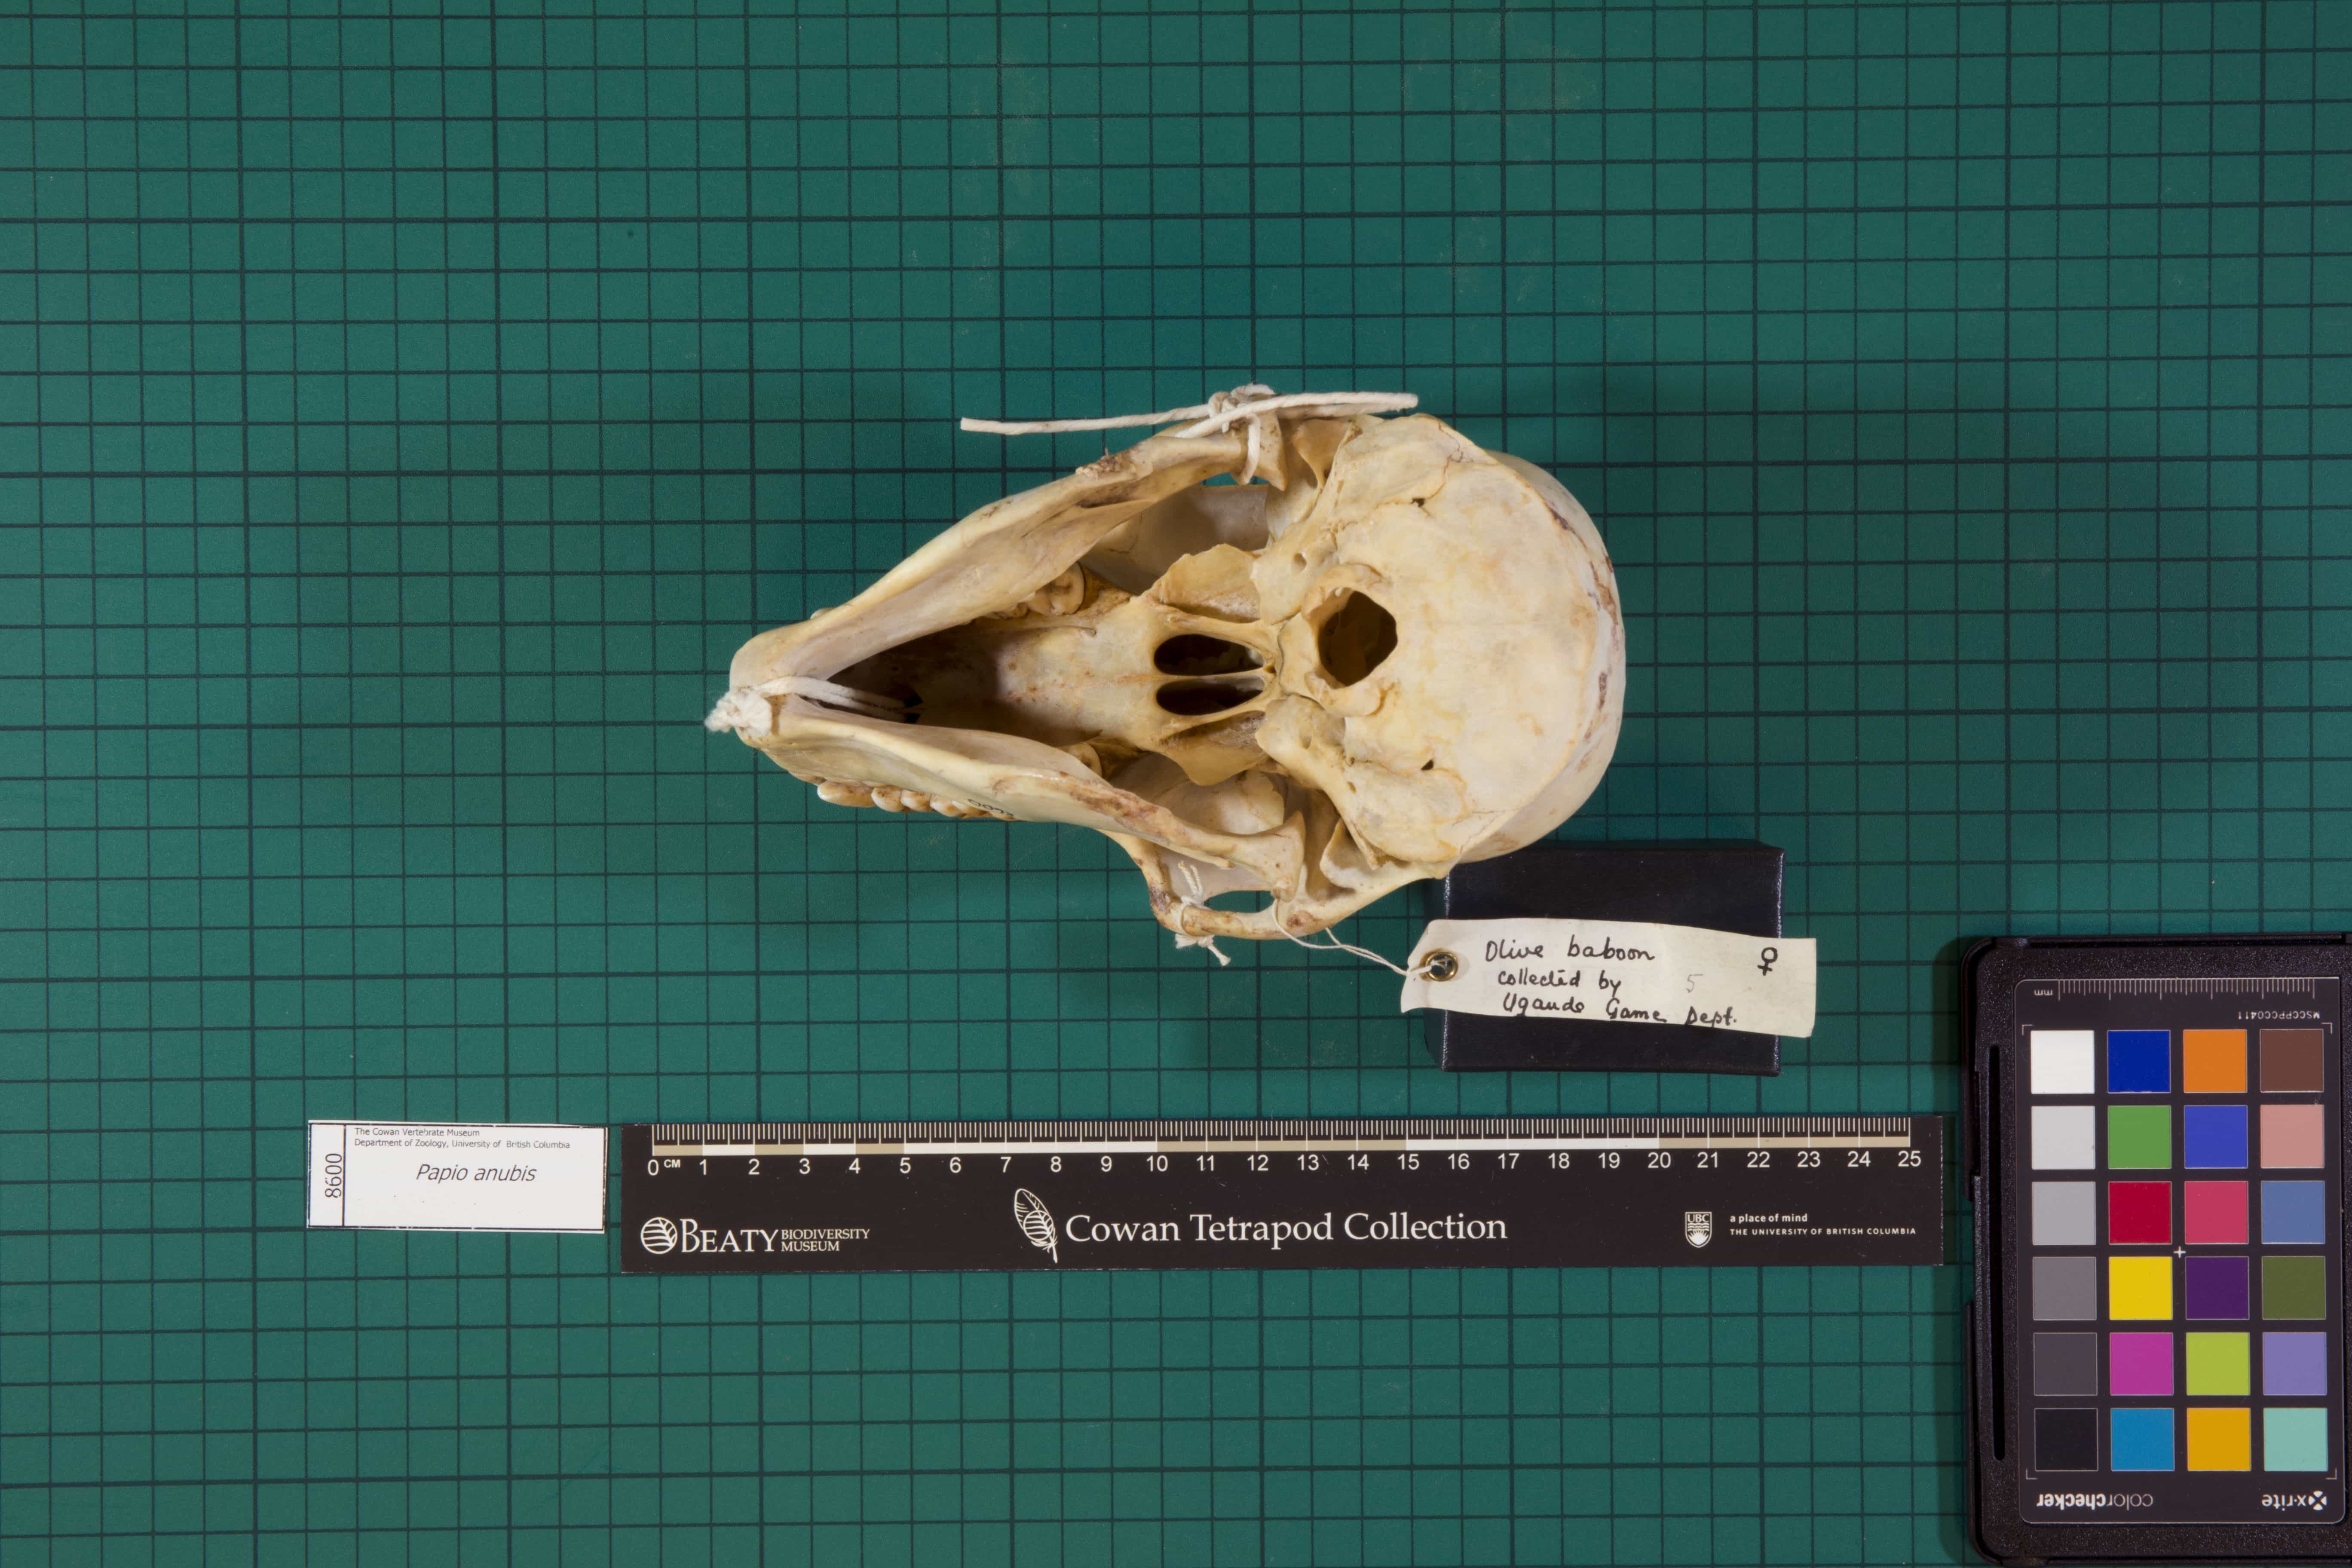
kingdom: Animalia
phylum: Chordata
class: Mammalia
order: Primates
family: Cercopithecidae
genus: Papio
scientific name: Papio anubis
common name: Olive Baboon
